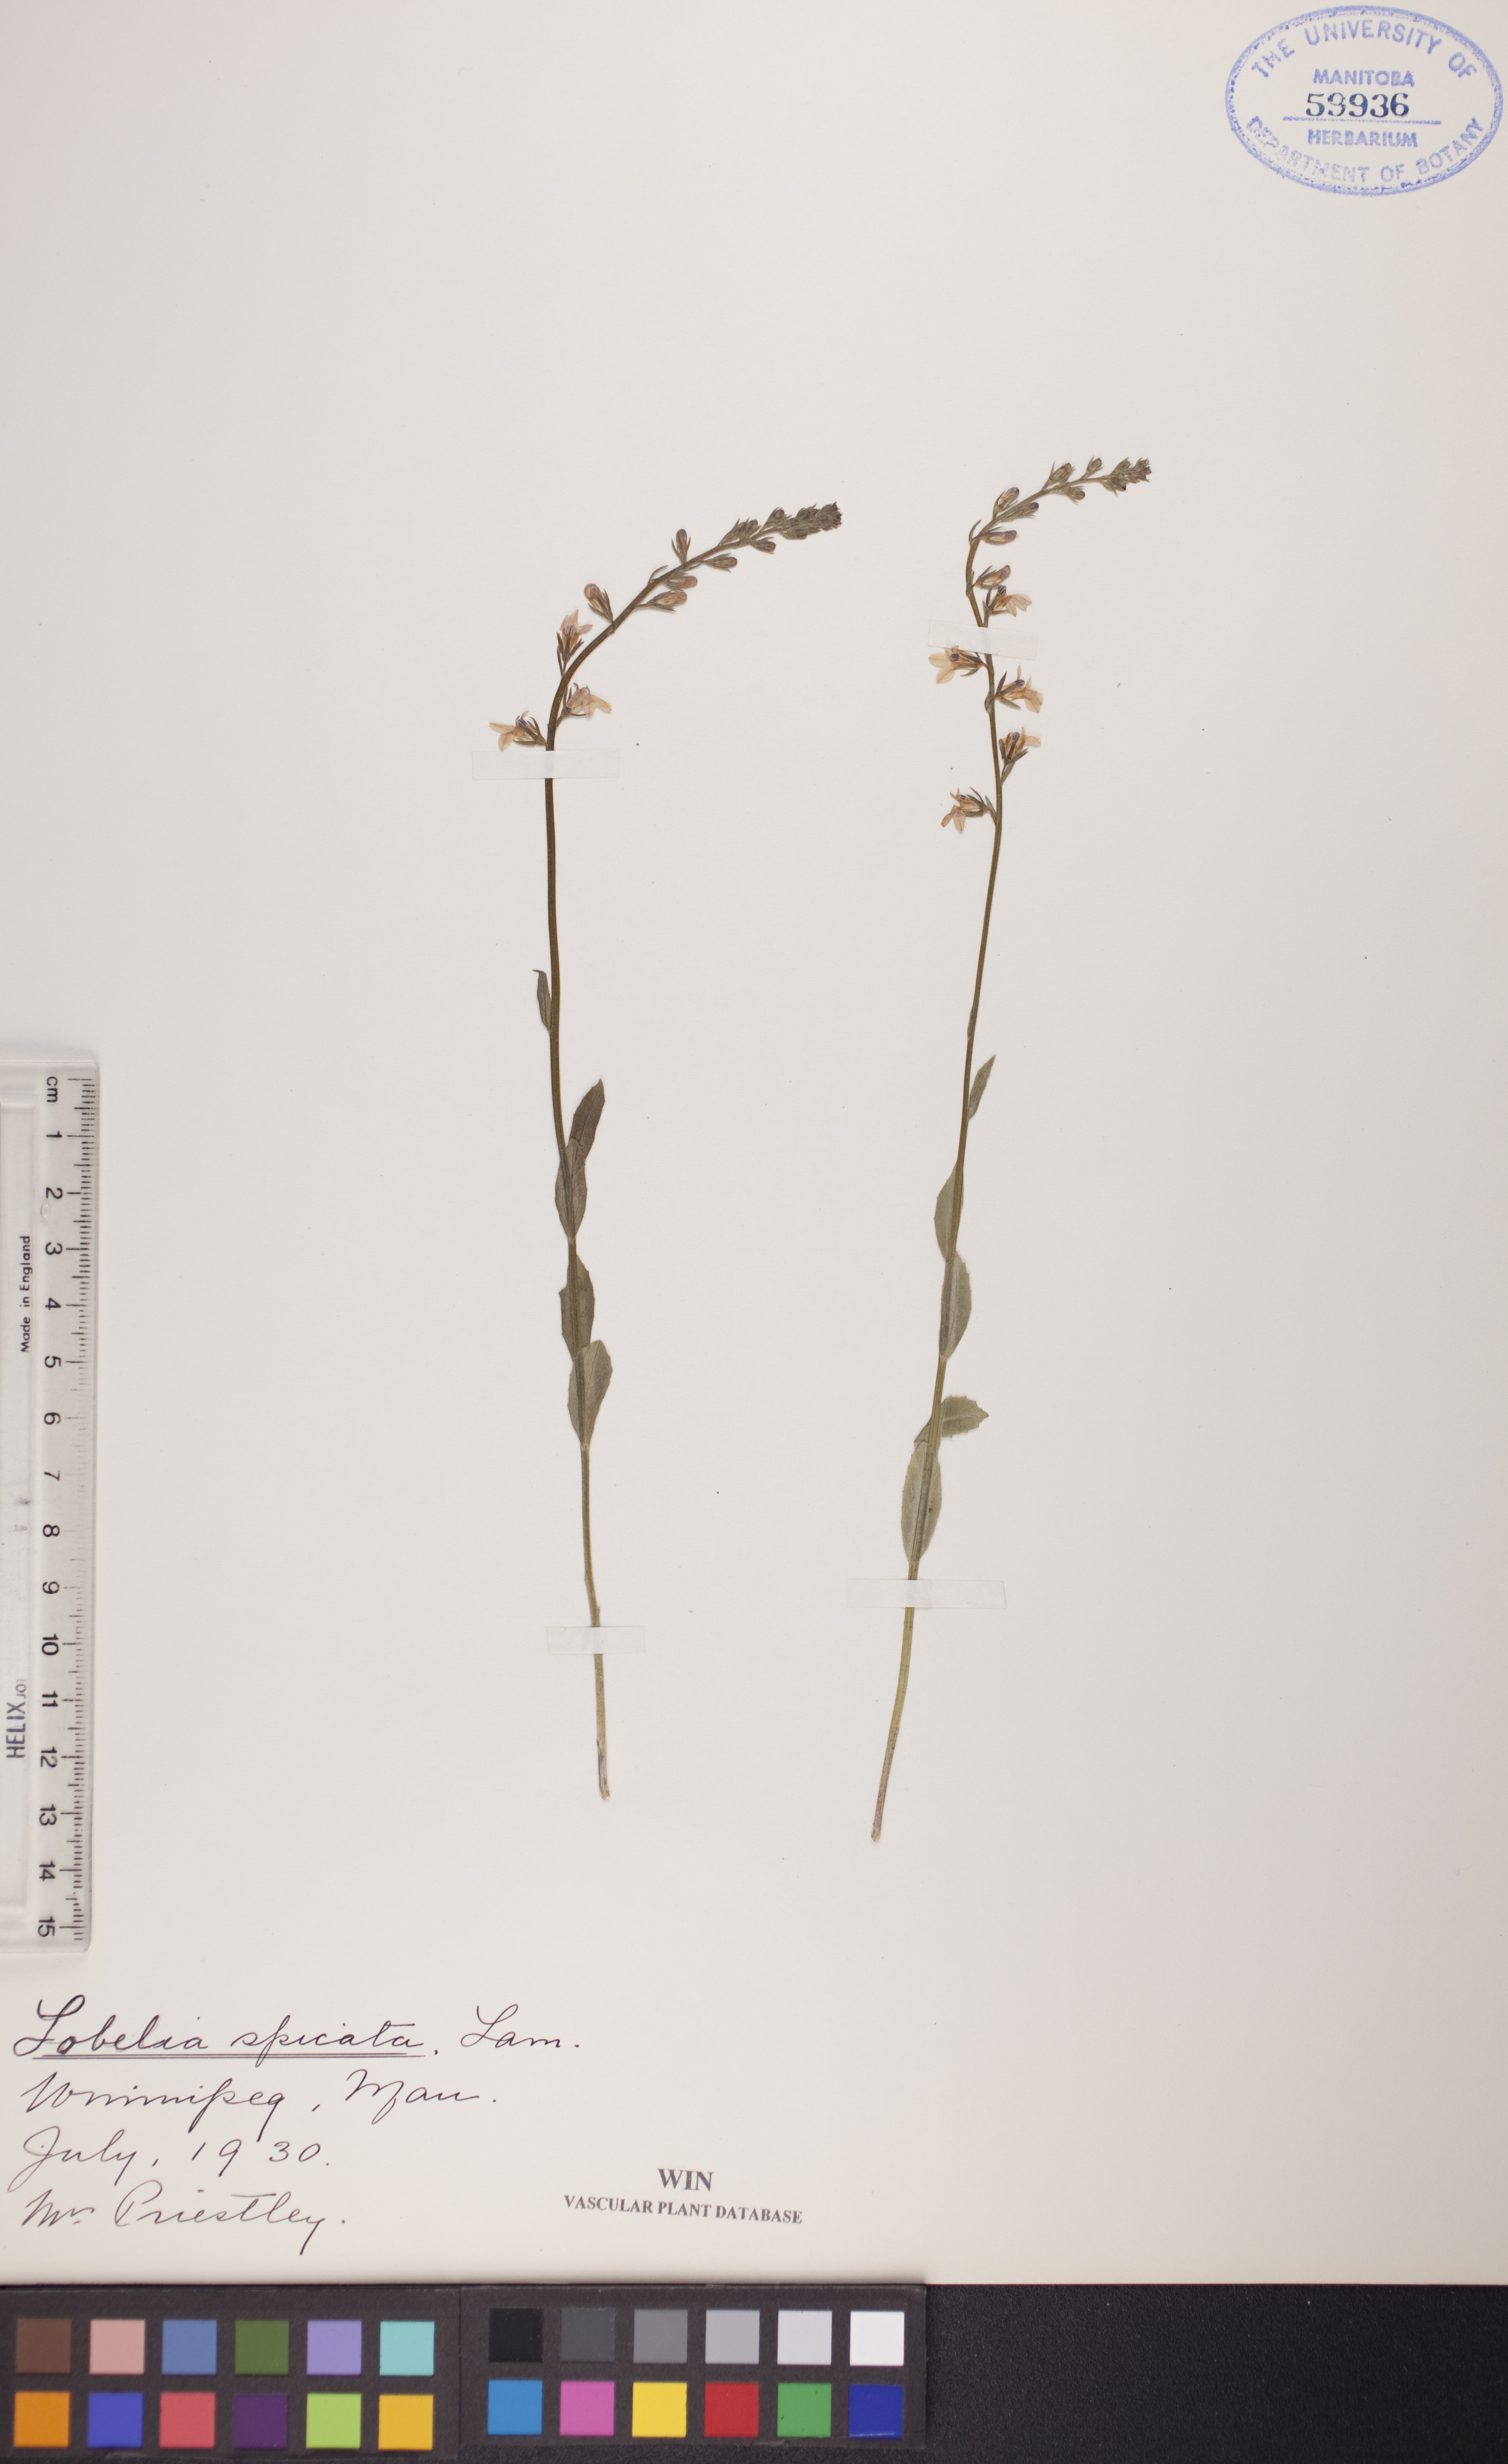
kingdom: Plantae
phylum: Tracheophyta
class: Magnoliopsida
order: Asterales
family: Campanulaceae
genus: Lobelia
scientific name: Lobelia spicata
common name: Pale-spike lobelia
